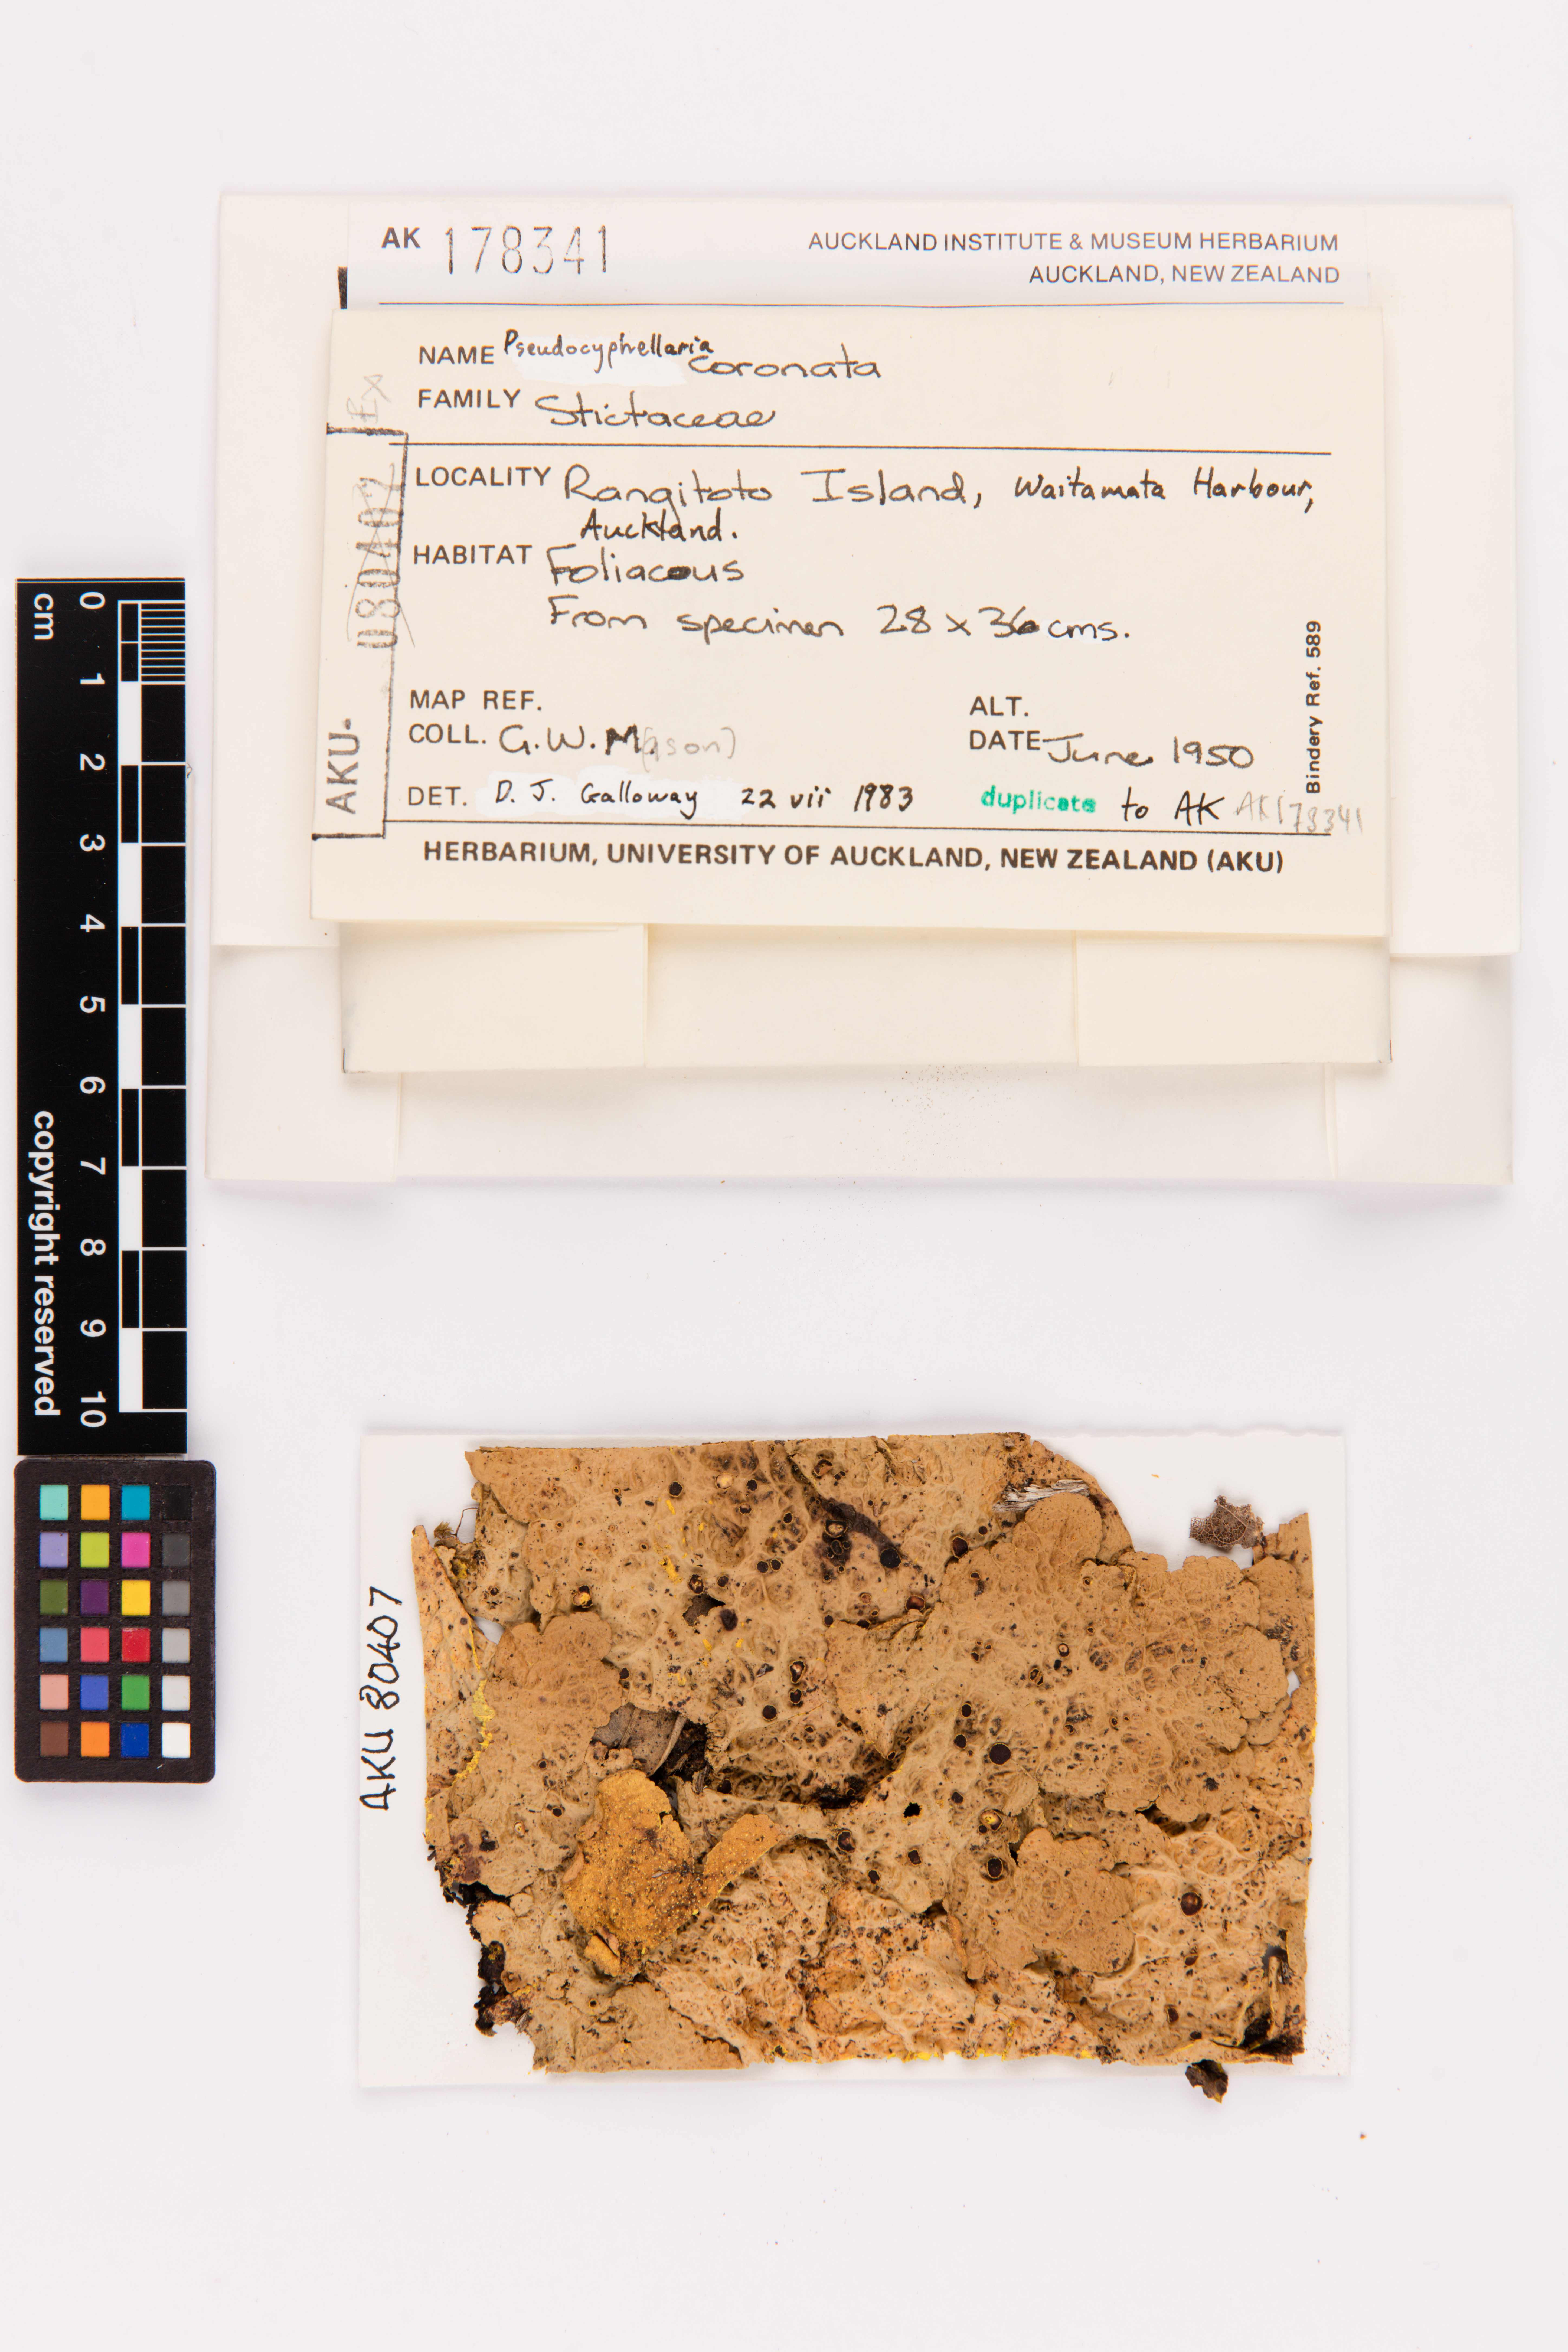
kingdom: Fungi
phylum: Ascomycota
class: Lecanoromycetes
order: Peltigerales
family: Lobariaceae
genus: Yarrumia
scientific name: Yarrumia coronata
